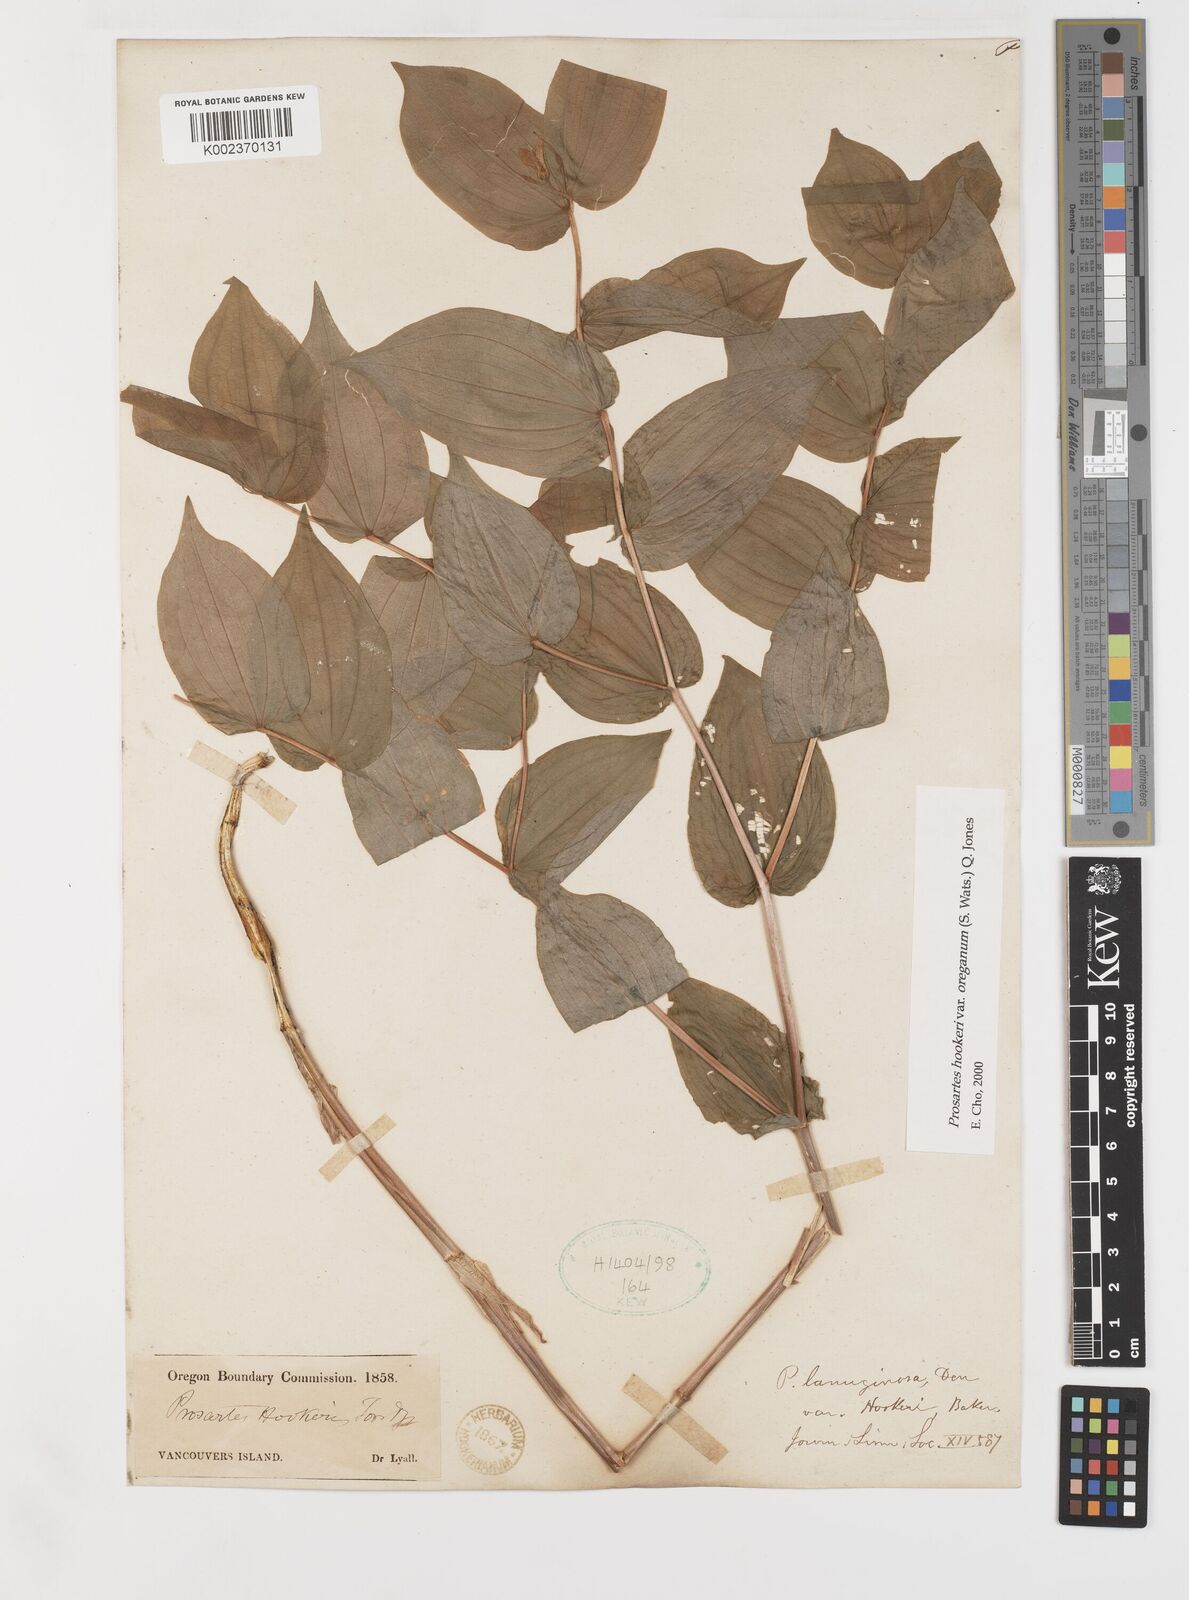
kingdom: Plantae
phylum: Tracheophyta
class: Liliopsida
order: Liliales
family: Liliaceae
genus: Prosartes
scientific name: Prosartes hookeri
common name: Fairy-bells
